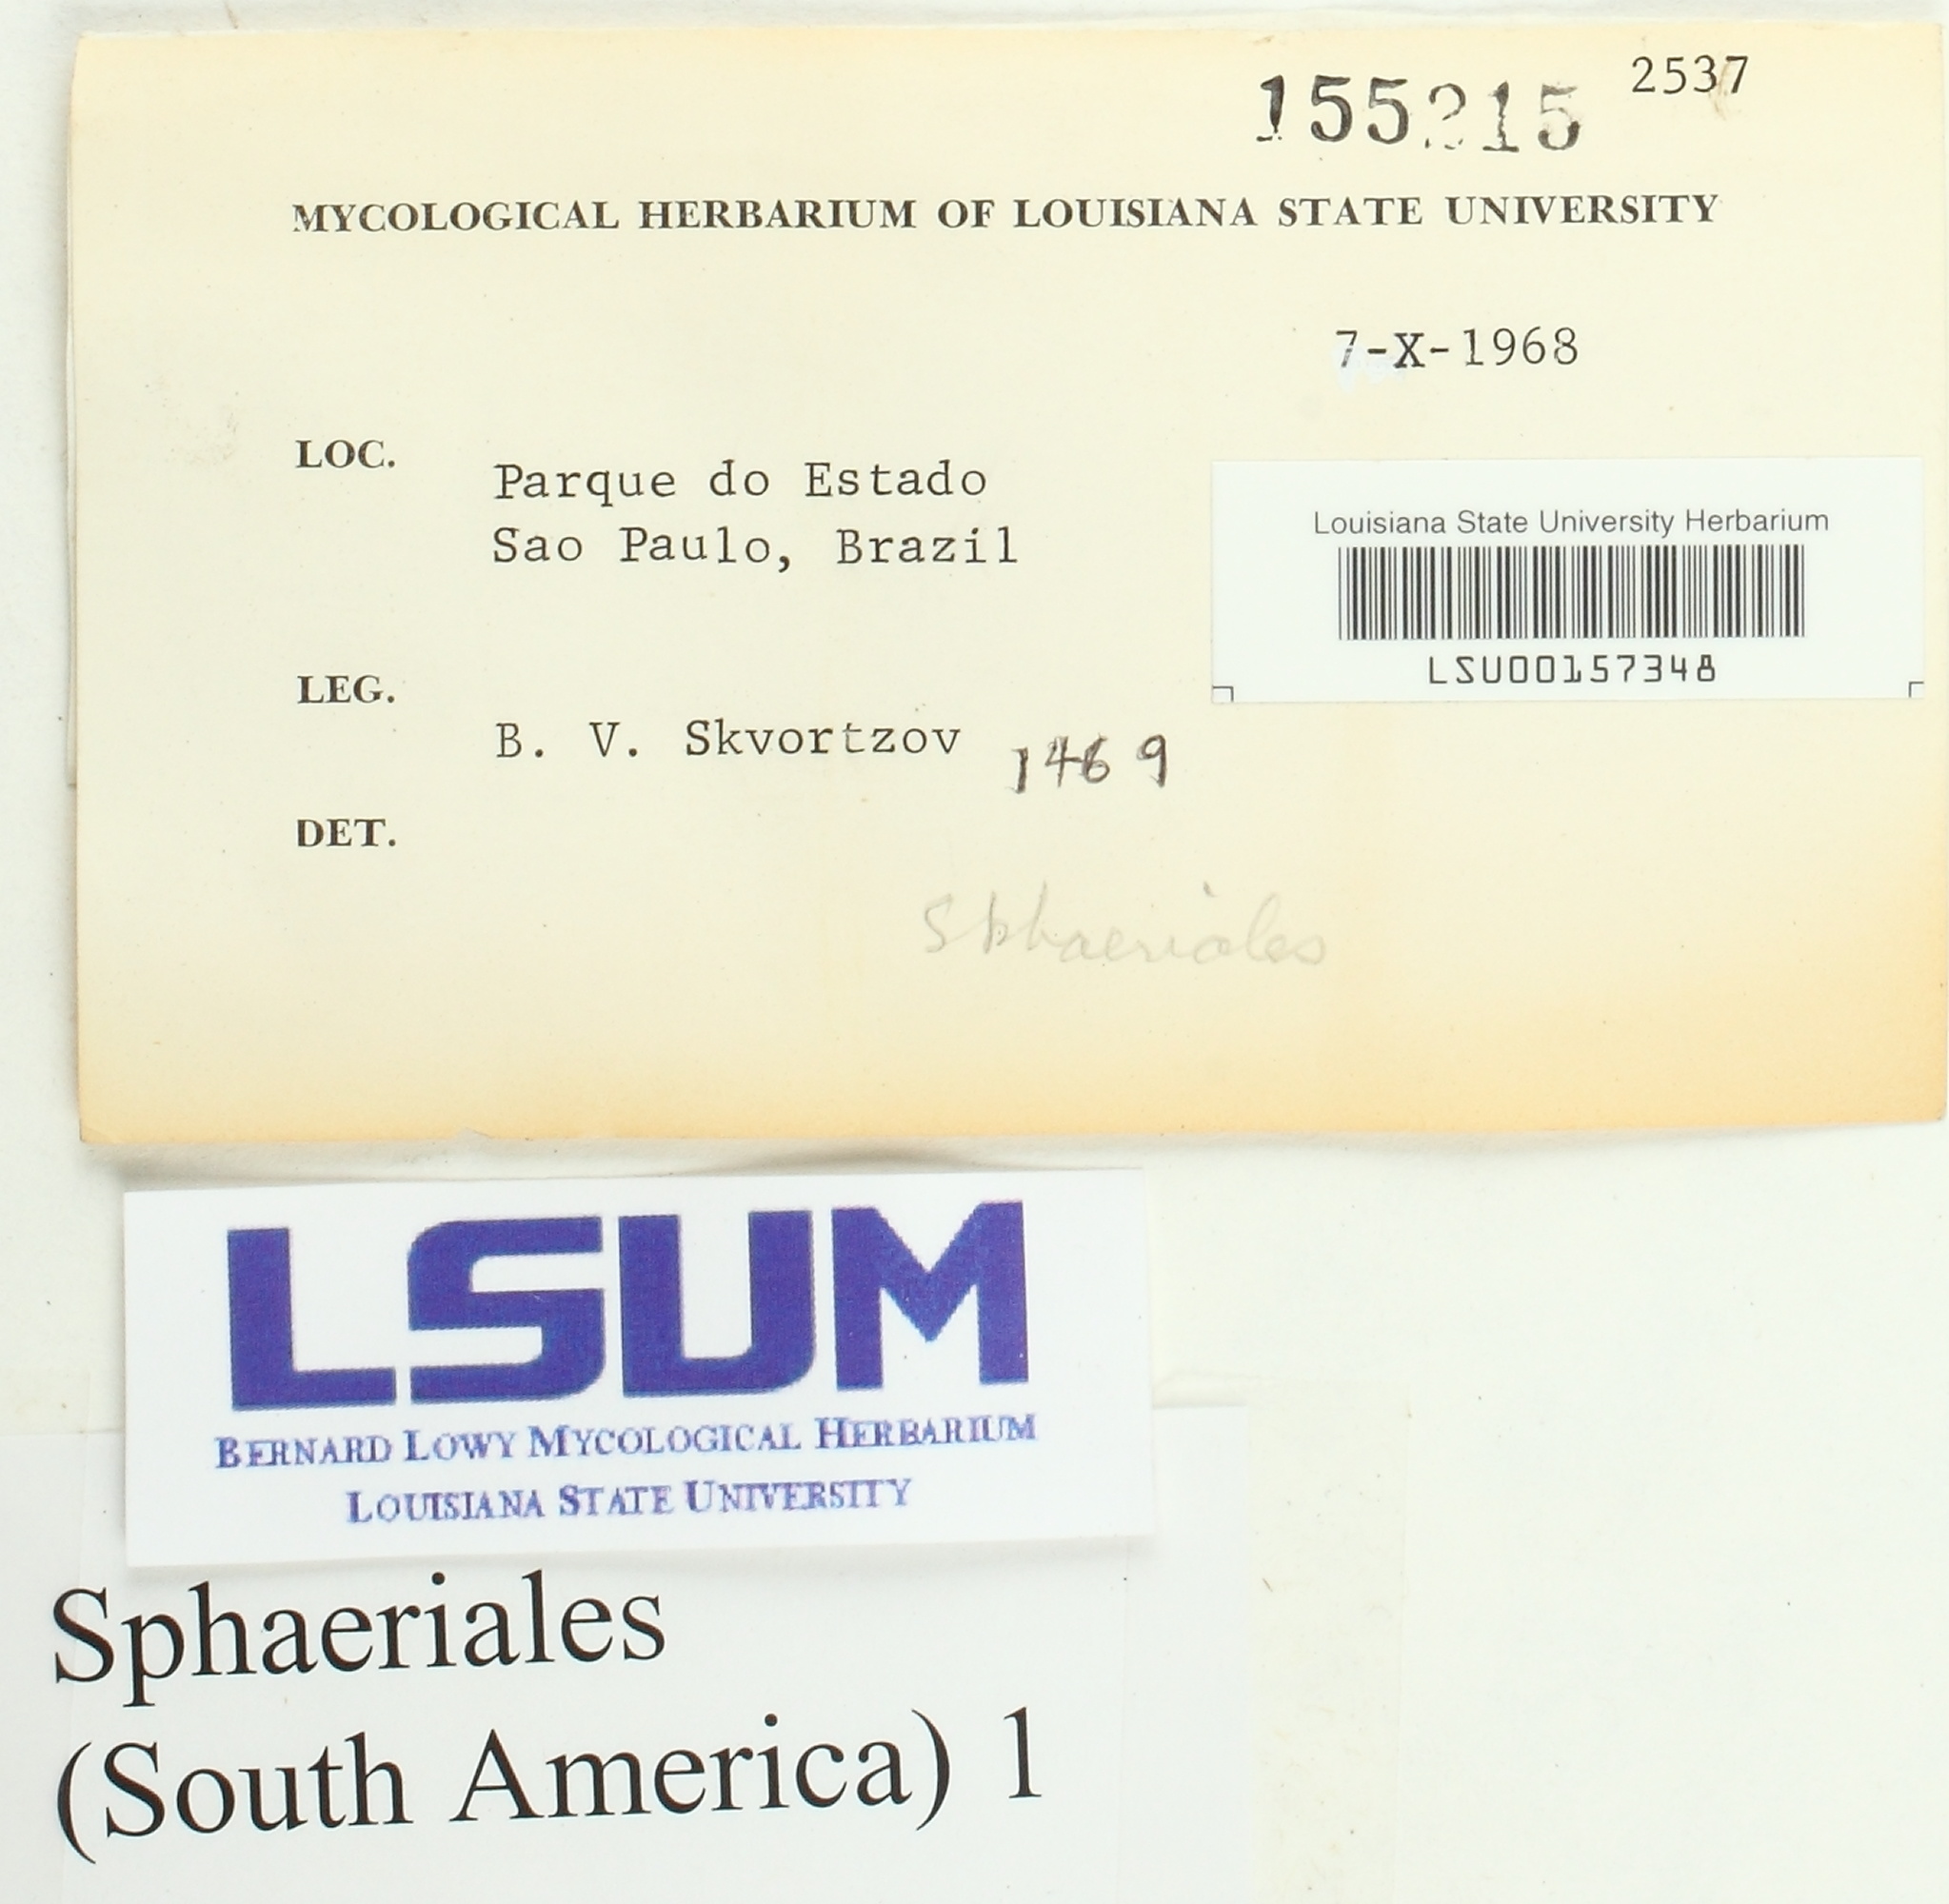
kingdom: Fungi
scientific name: Fungi
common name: Fungi
